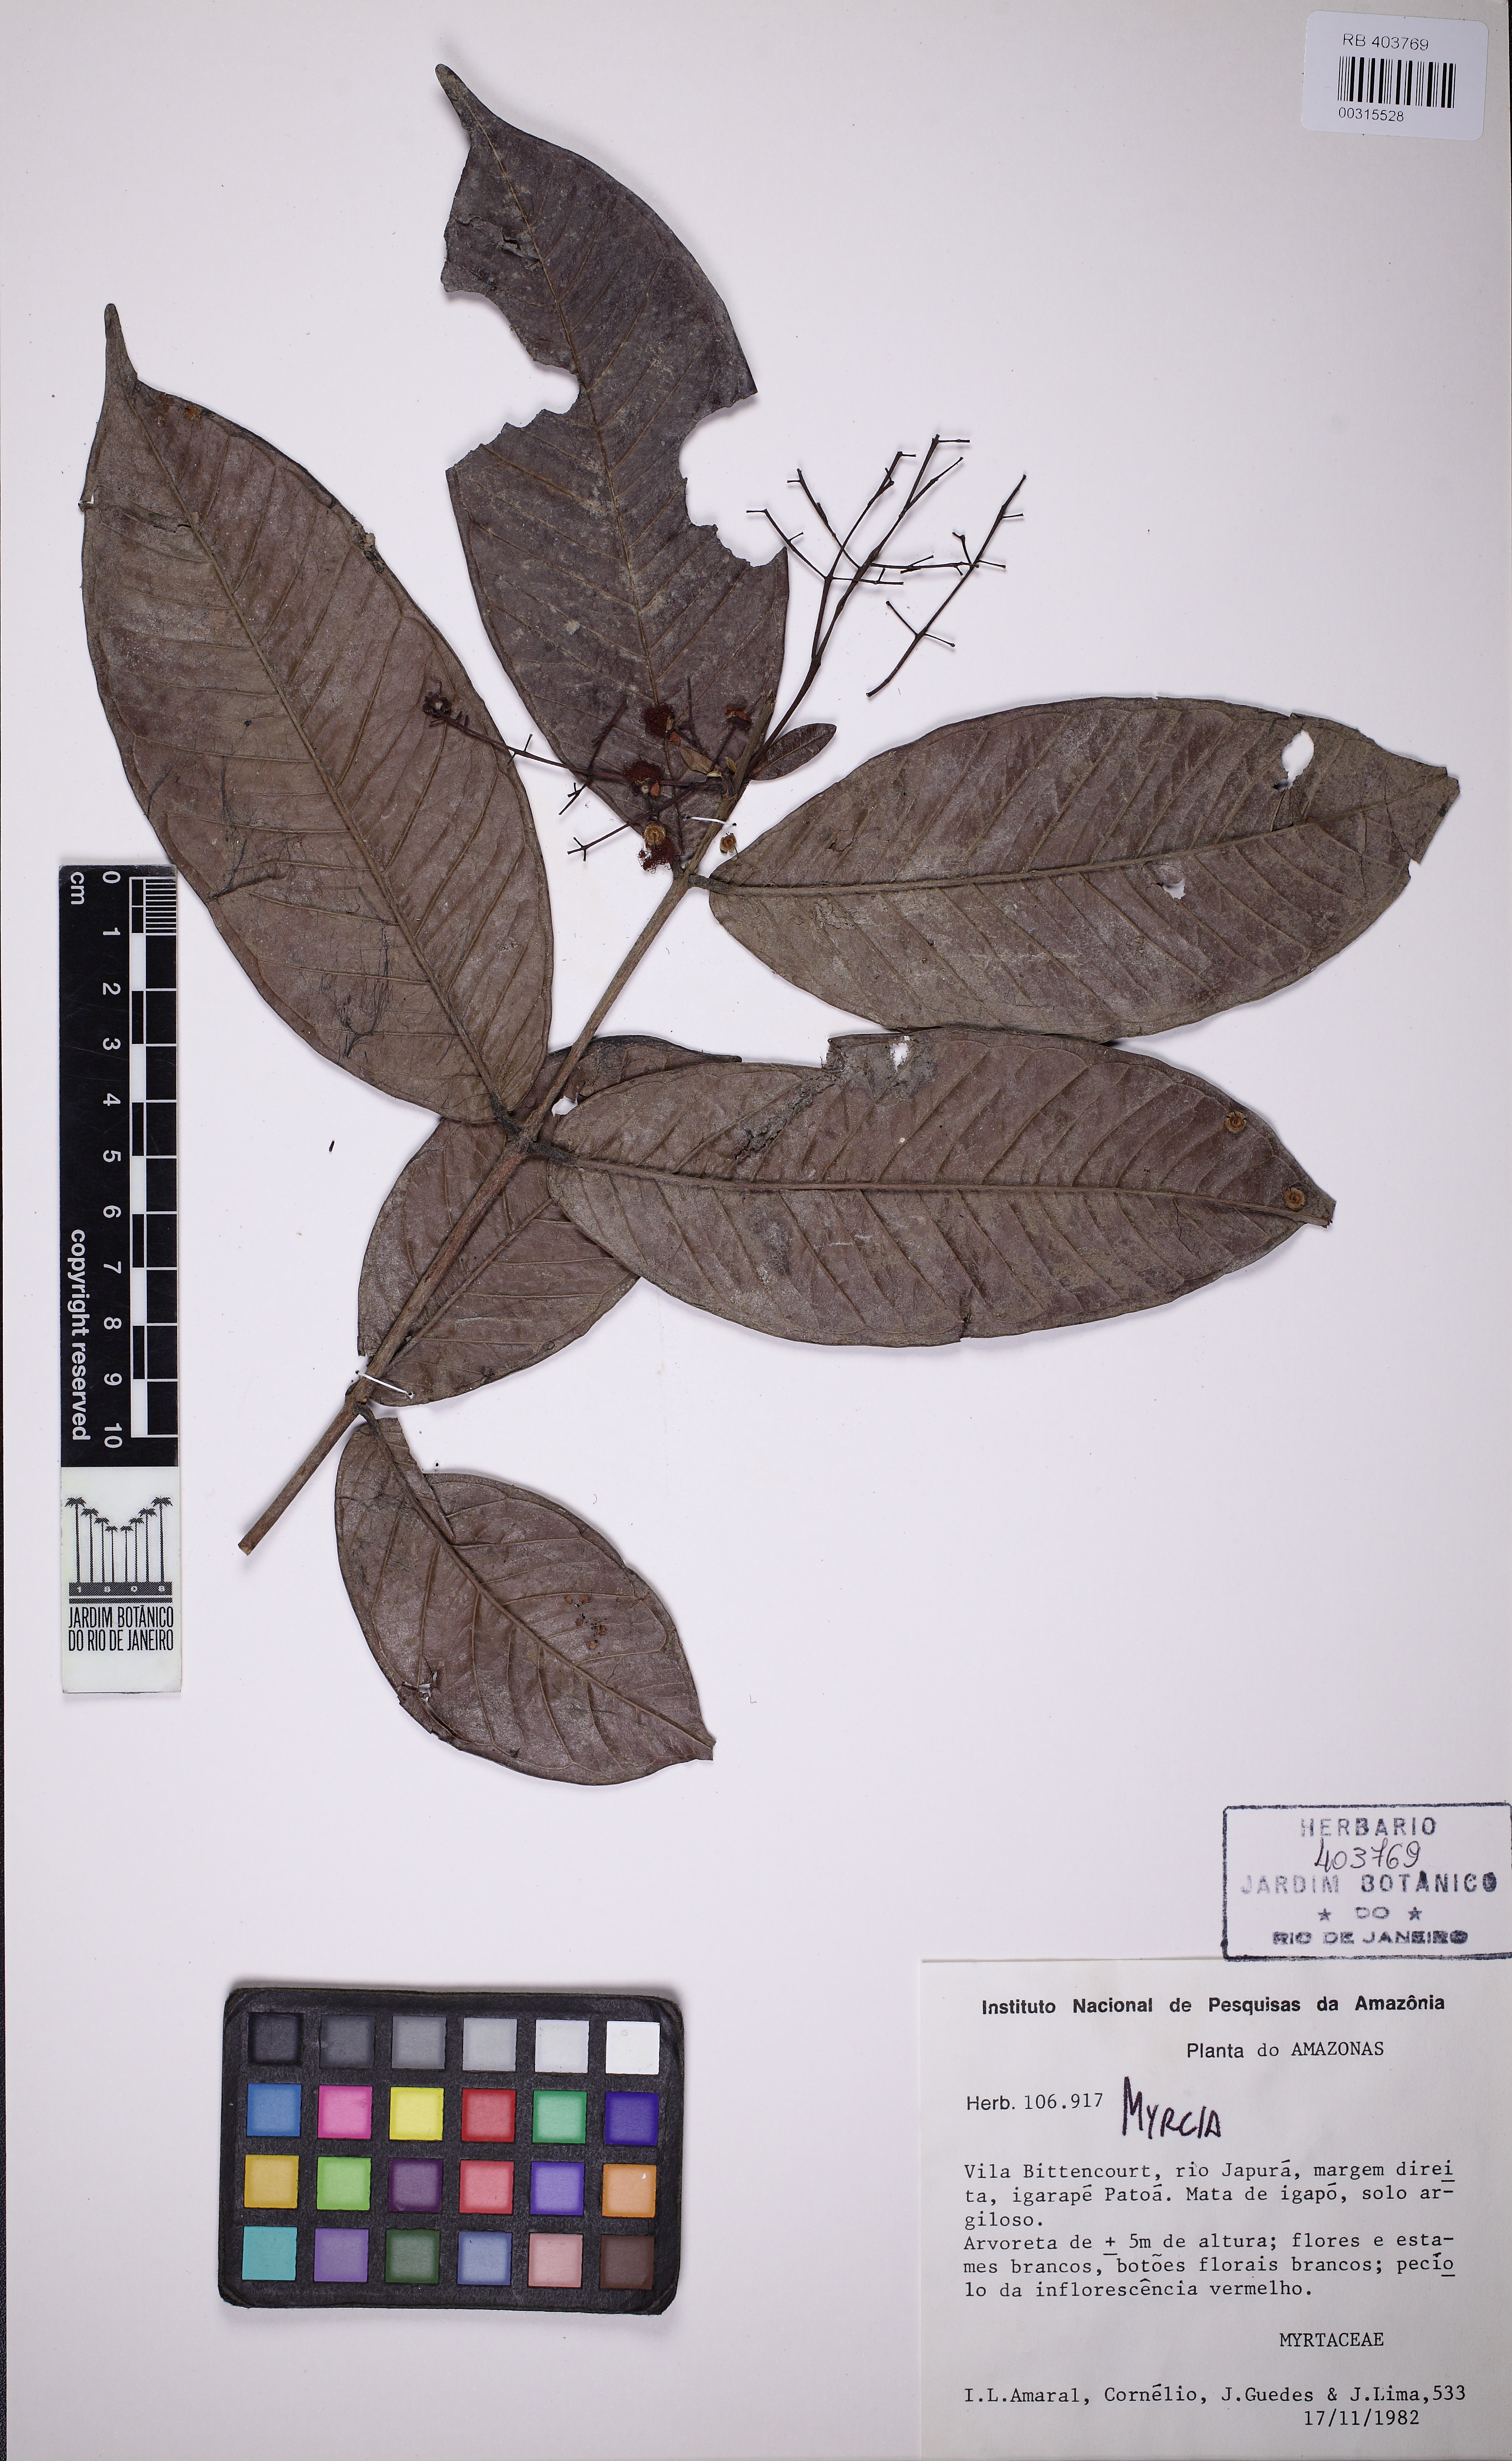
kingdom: Plantae
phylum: Tracheophyta
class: Magnoliopsida
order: Myrtales
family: Myrtaceae
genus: Myrcia
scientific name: Myrcia coumete
